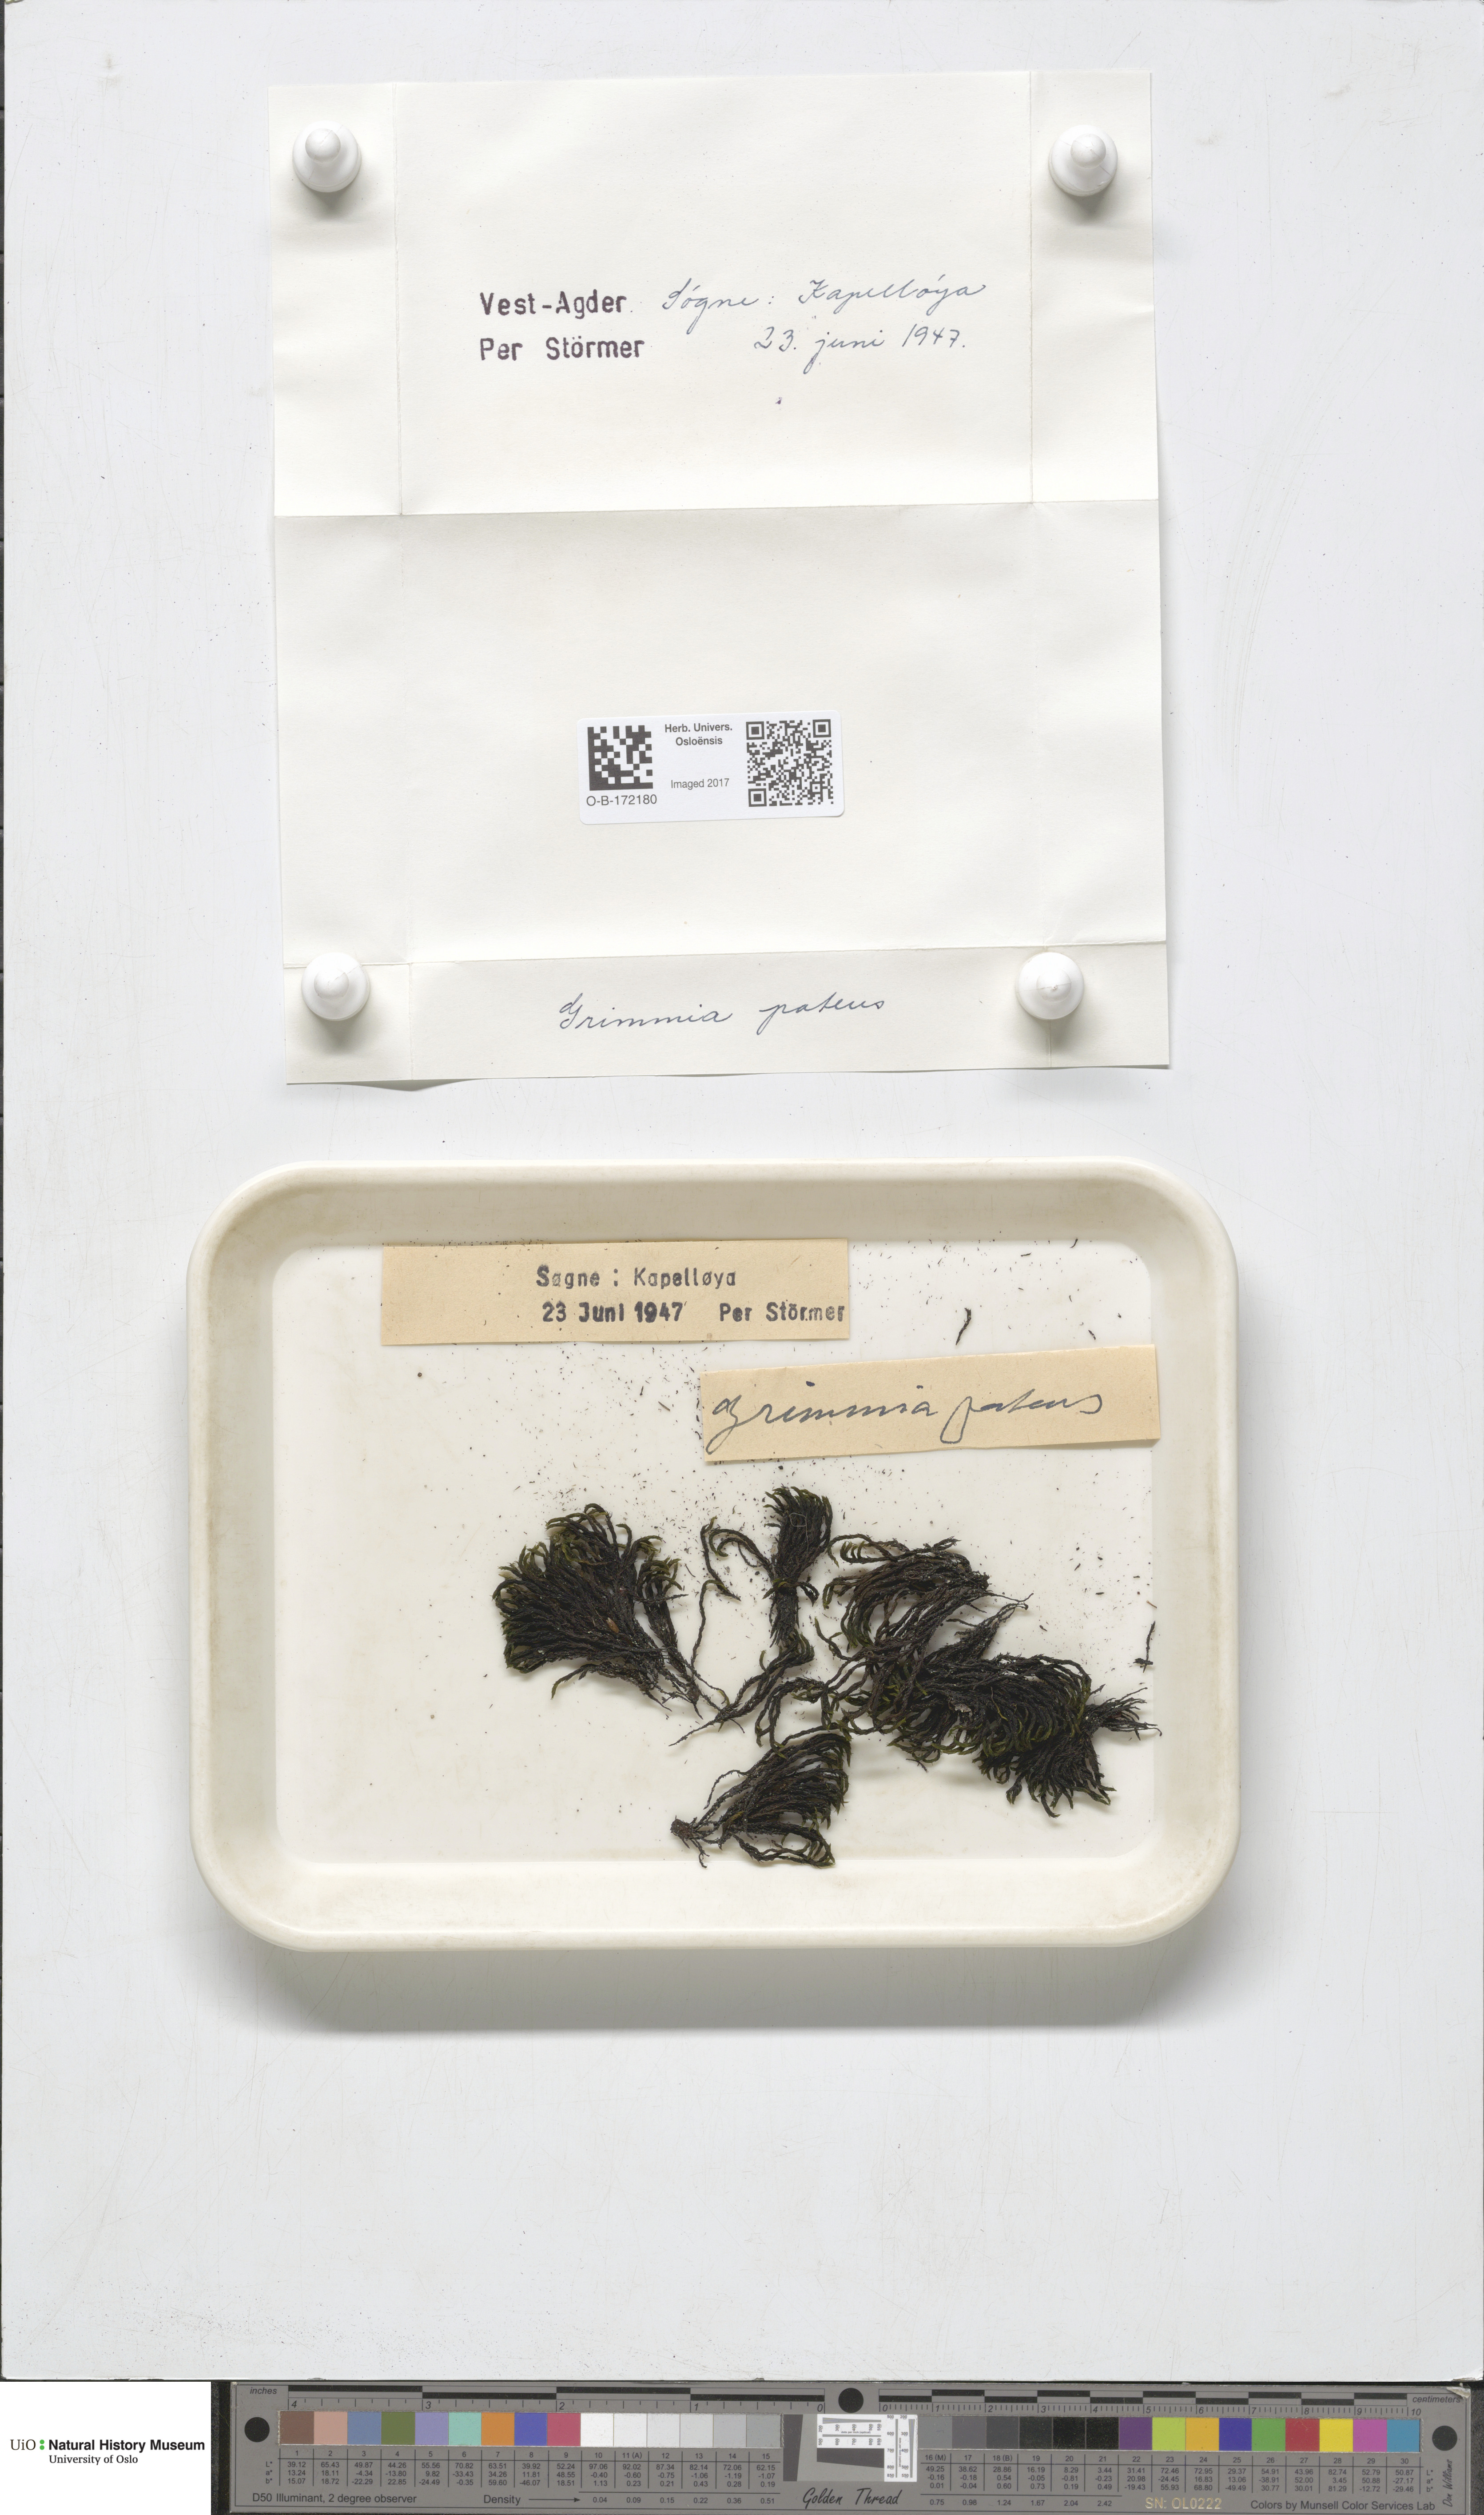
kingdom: Plantae
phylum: Bryophyta
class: Bryopsida
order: Grimmiales
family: Grimmiaceae
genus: Grimmia
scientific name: Grimmia ramondii
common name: Spreading-leaved grimmia
